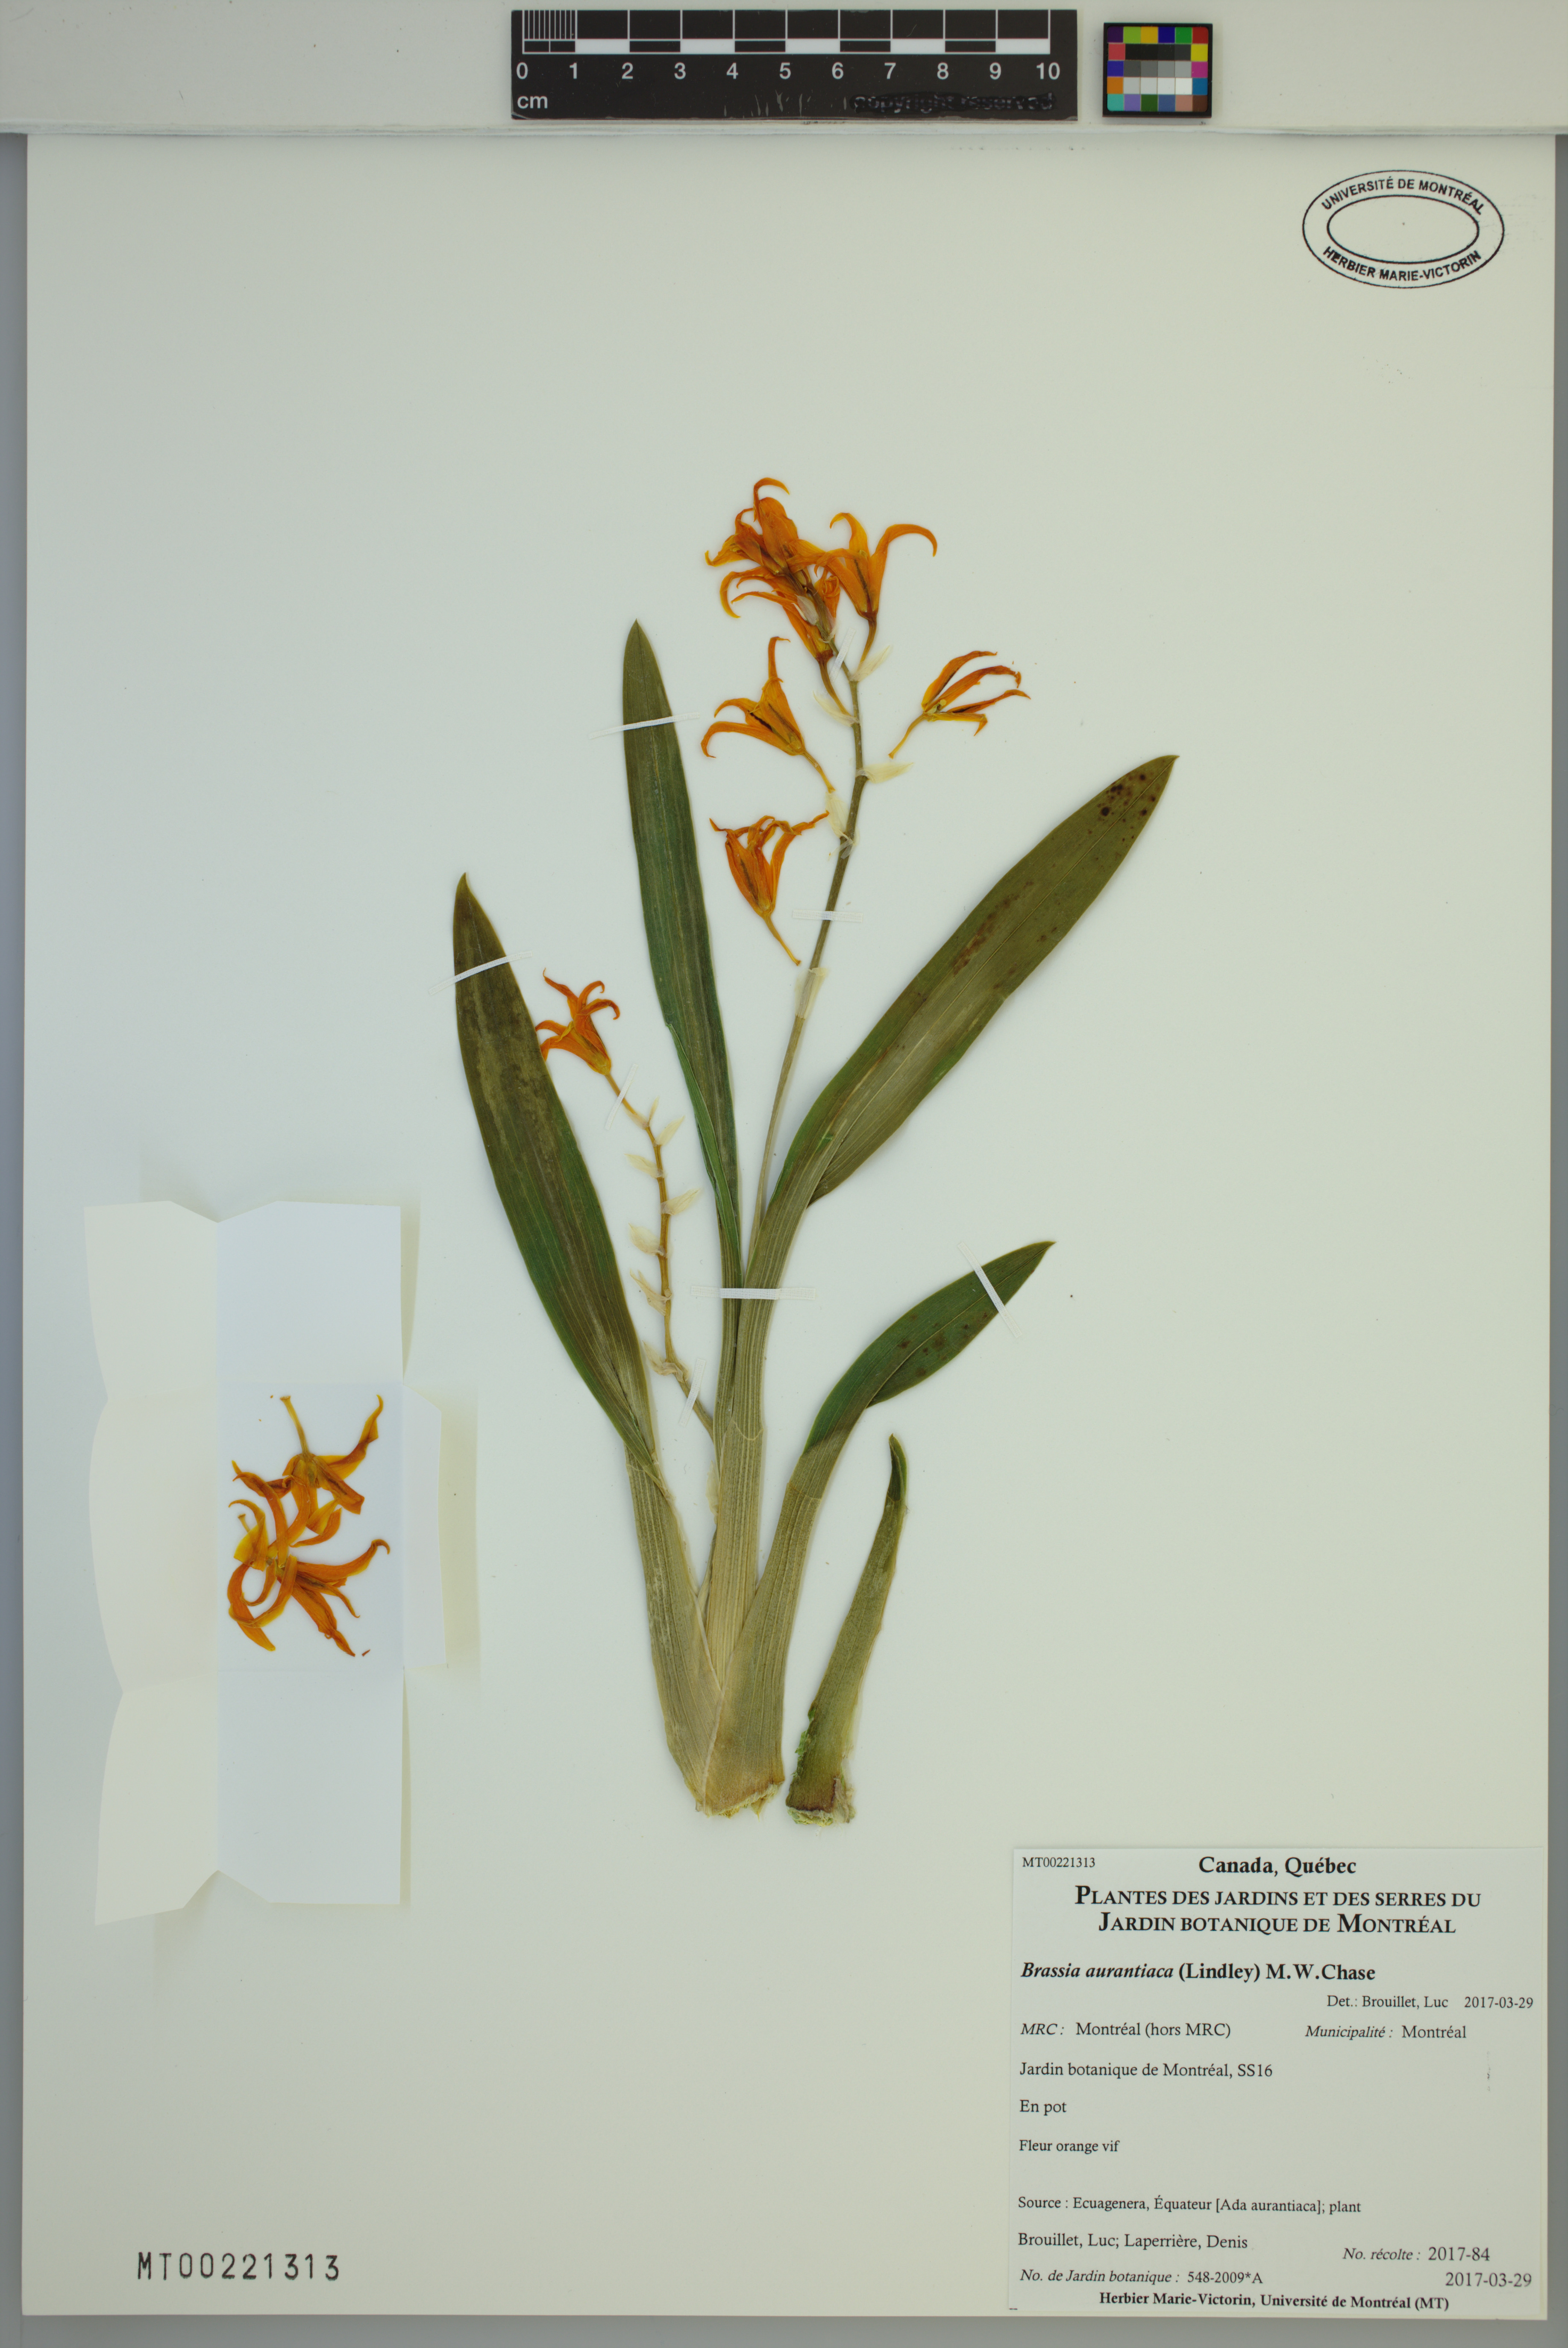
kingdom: Plantae
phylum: Tracheophyta
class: Liliopsida
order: Asparagales
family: Orchidaceae
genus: Brassia
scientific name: Brassia aurantiaca
